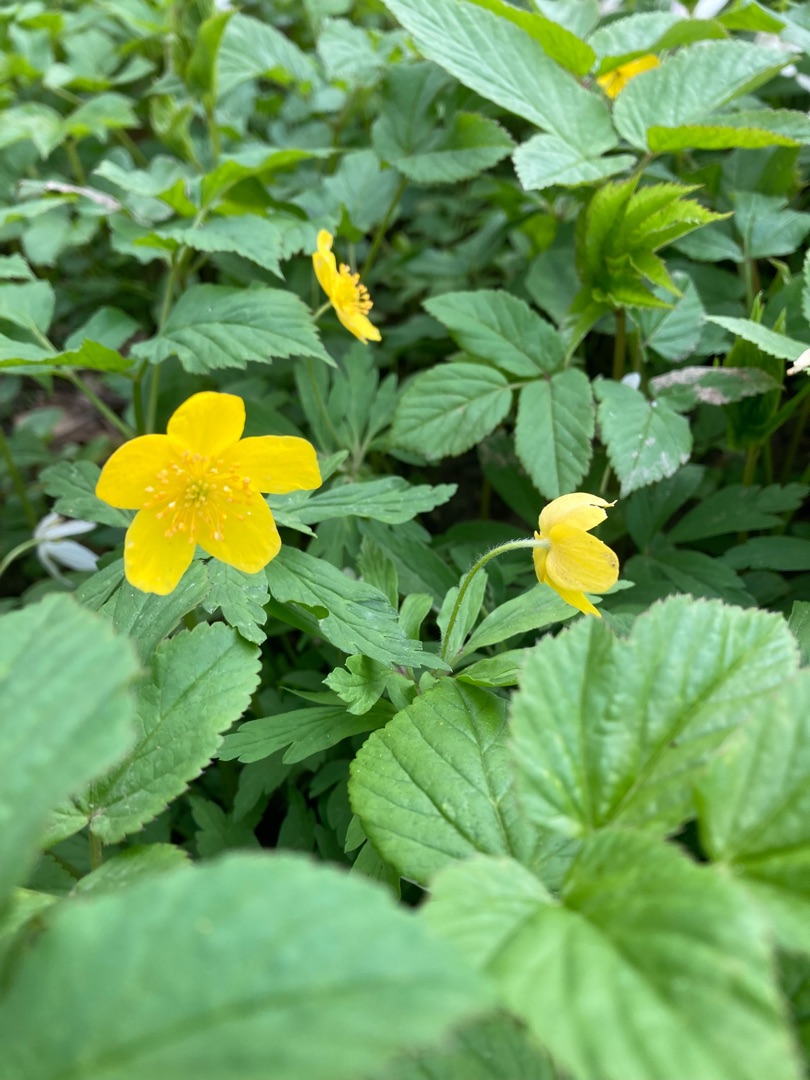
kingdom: Plantae
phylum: Tracheophyta
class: Magnoliopsida
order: Ranunculales
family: Ranunculaceae
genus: Anemone
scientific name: Anemone ranunculoides
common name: Gul anemone
